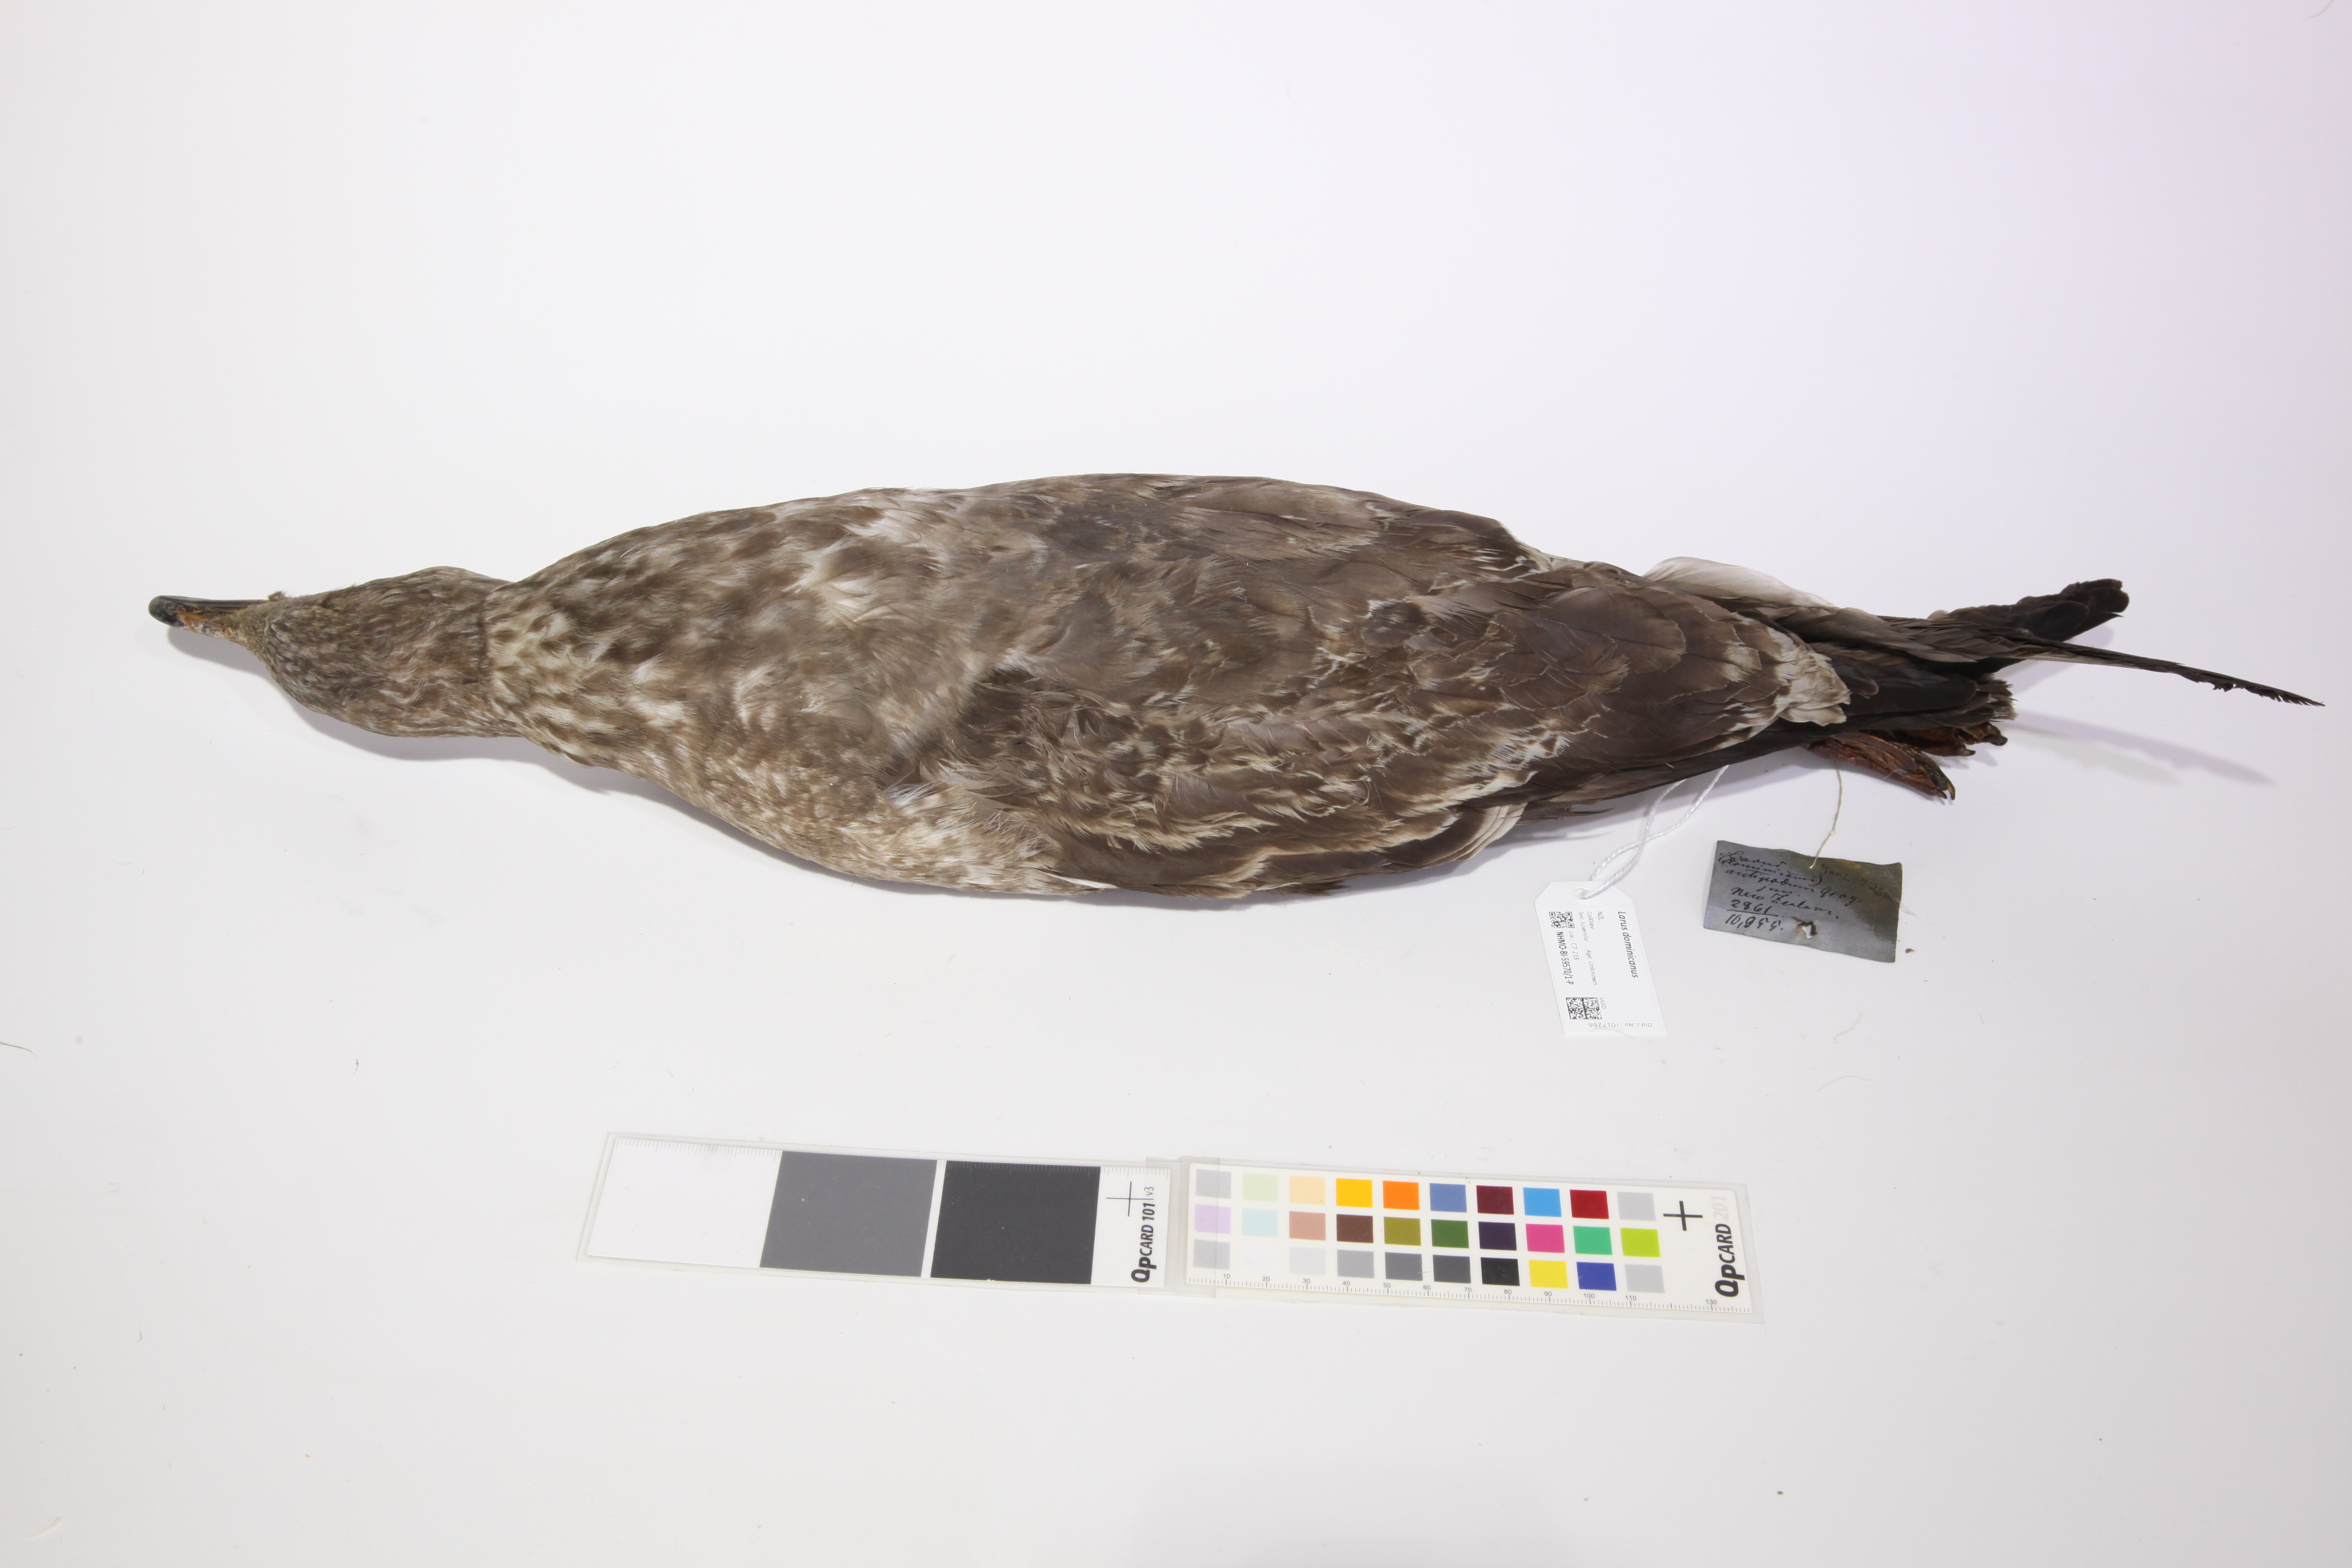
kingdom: Animalia
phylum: Chordata
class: Aves
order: Charadriiformes
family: Laridae
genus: Larus
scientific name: Larus dominicanus
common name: Kelp gull
